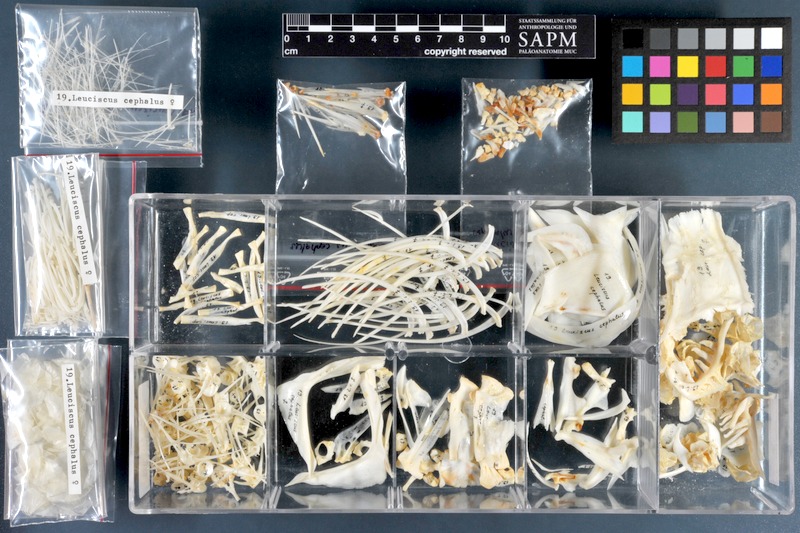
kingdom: Animalia
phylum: Chordata
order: Cypriniformes
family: Cyprinidae
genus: Squalius
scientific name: Squalius cephalus
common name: Chub
